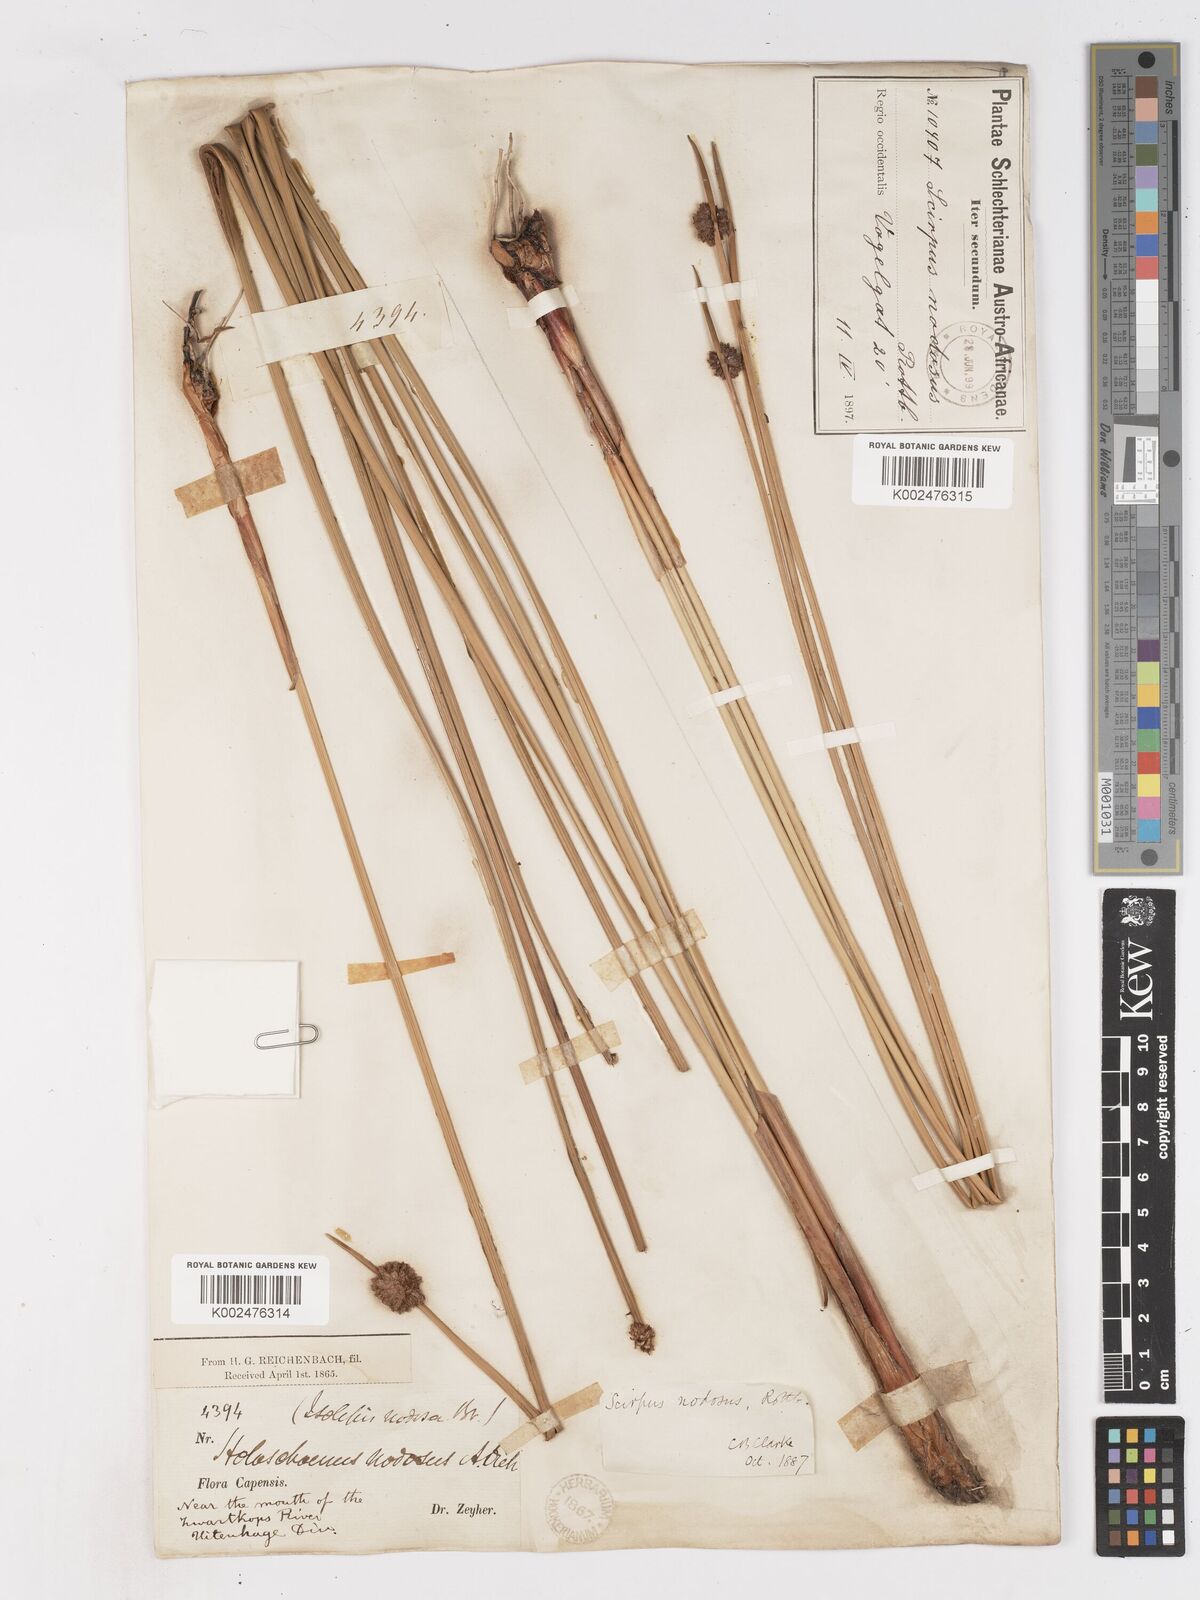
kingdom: Plantae
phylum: Tracheophyta
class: Liliopsida
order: Poales
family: Cyperaceae
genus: Ficinia
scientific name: Ficinia nodosa
